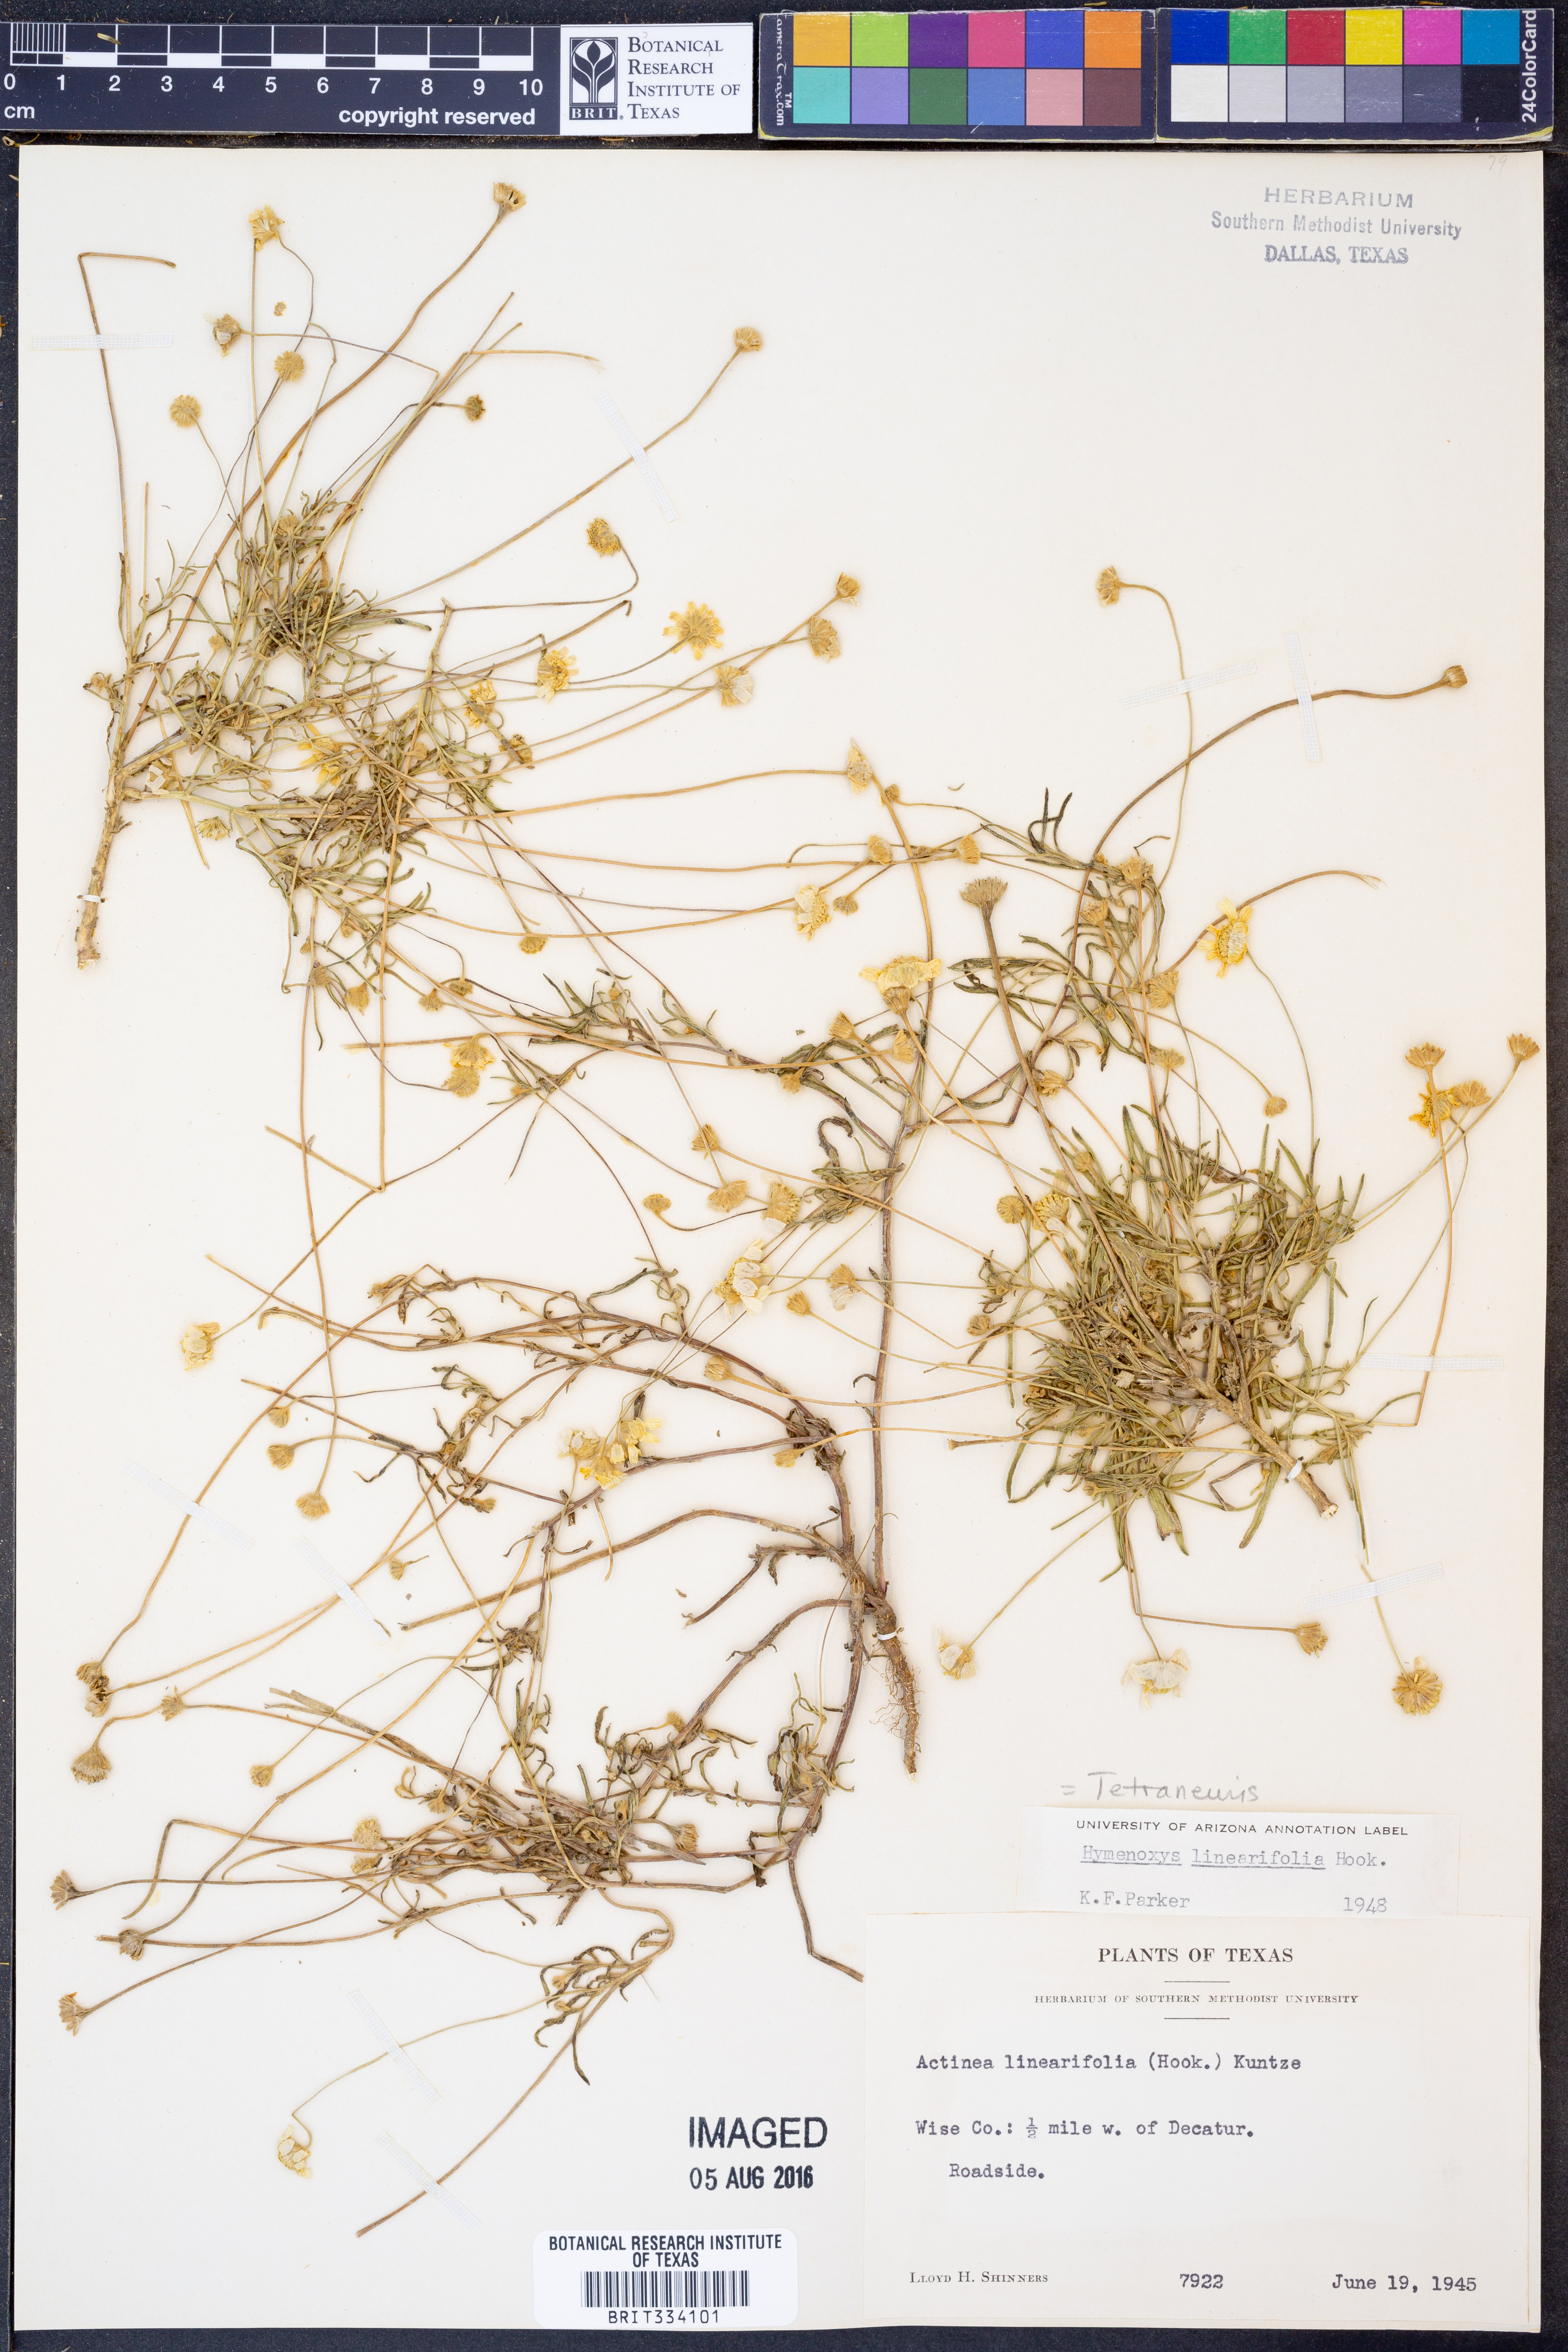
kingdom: Plantae
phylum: Tracheophyta
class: Magnoliopsida
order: Asterales
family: Asteraceae
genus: Tetraneuris
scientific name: Tetraneuris linearifolia
